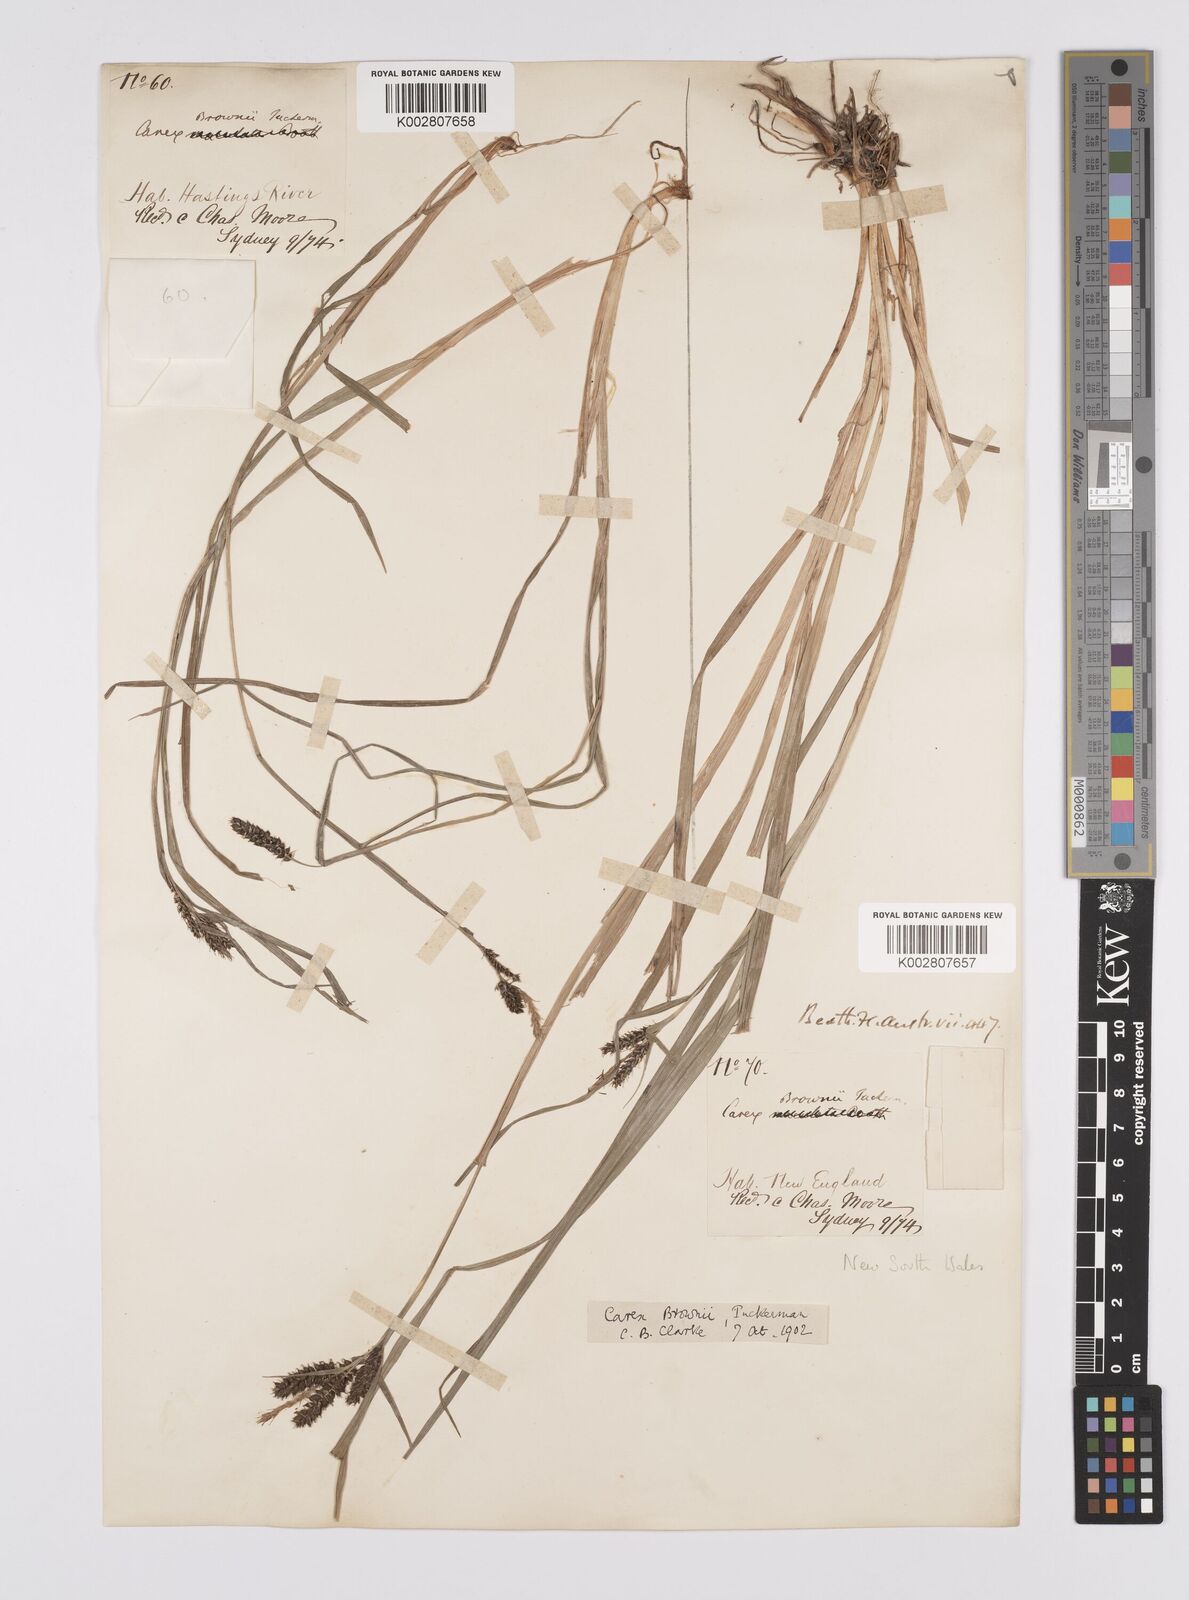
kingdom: Plantae
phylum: Tracheophyta
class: Liliopsida
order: Poales
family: Cyperaceae
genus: Carex
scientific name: Carex longebrachiata
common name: Drooping sedge
